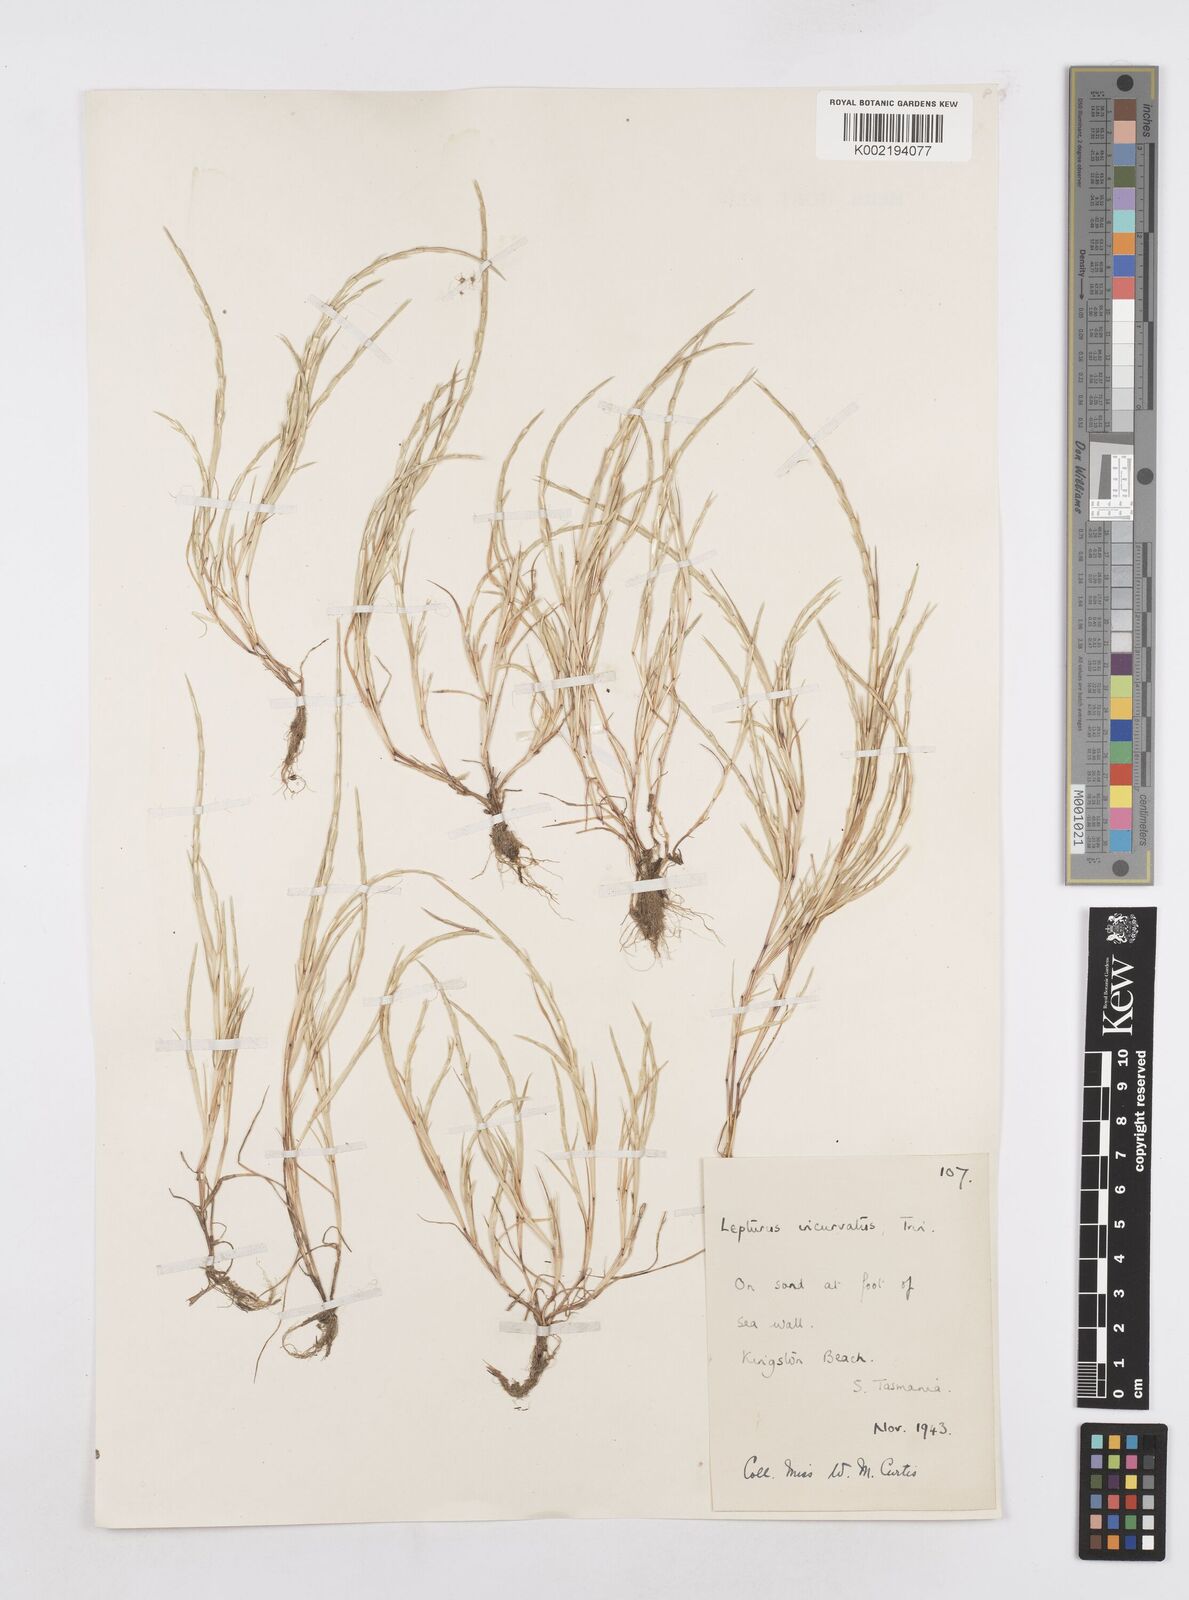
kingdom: Plantae
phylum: Tracheophyta
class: Liliopsida
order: Poales
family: Poaceae
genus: Parapholis
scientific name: Parapholis incurva
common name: Curved sicklegrass
